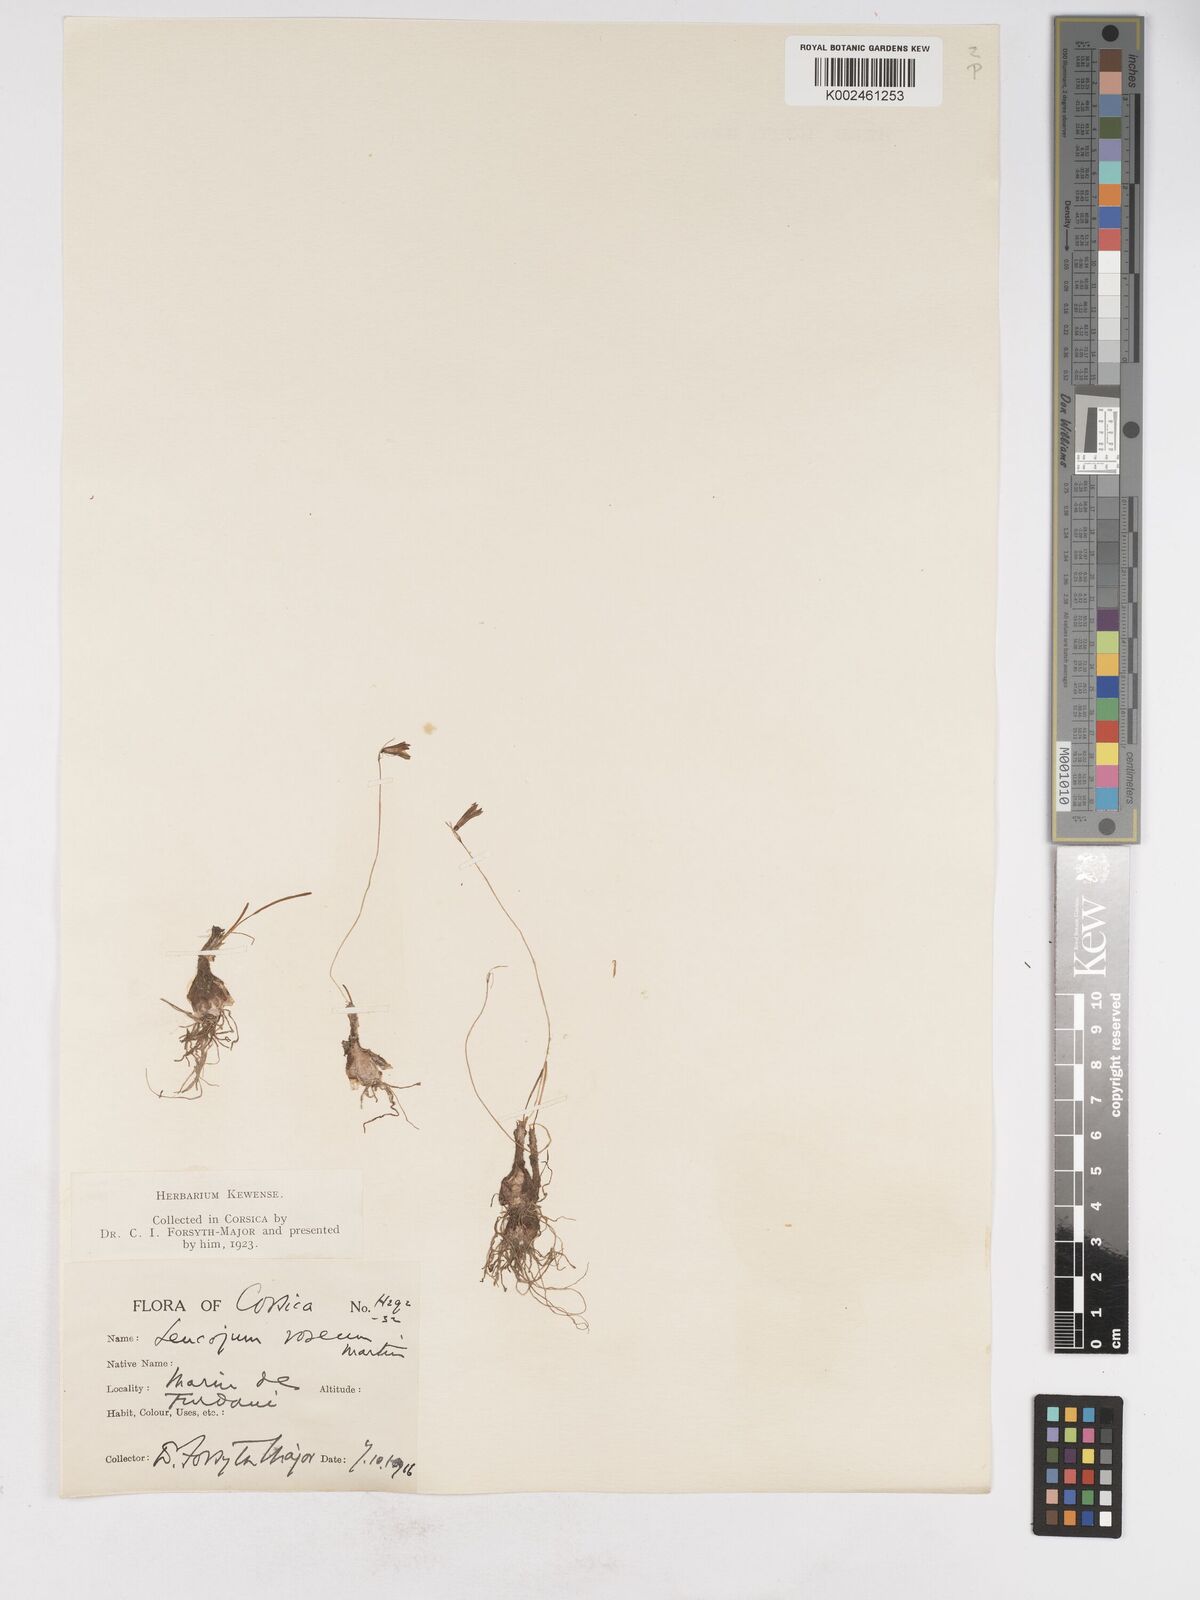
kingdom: Plantae
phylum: Tracheophyta
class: Liliopsida
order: Asparagales
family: Amaryllidaceae
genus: Acis
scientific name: Acis rosea
